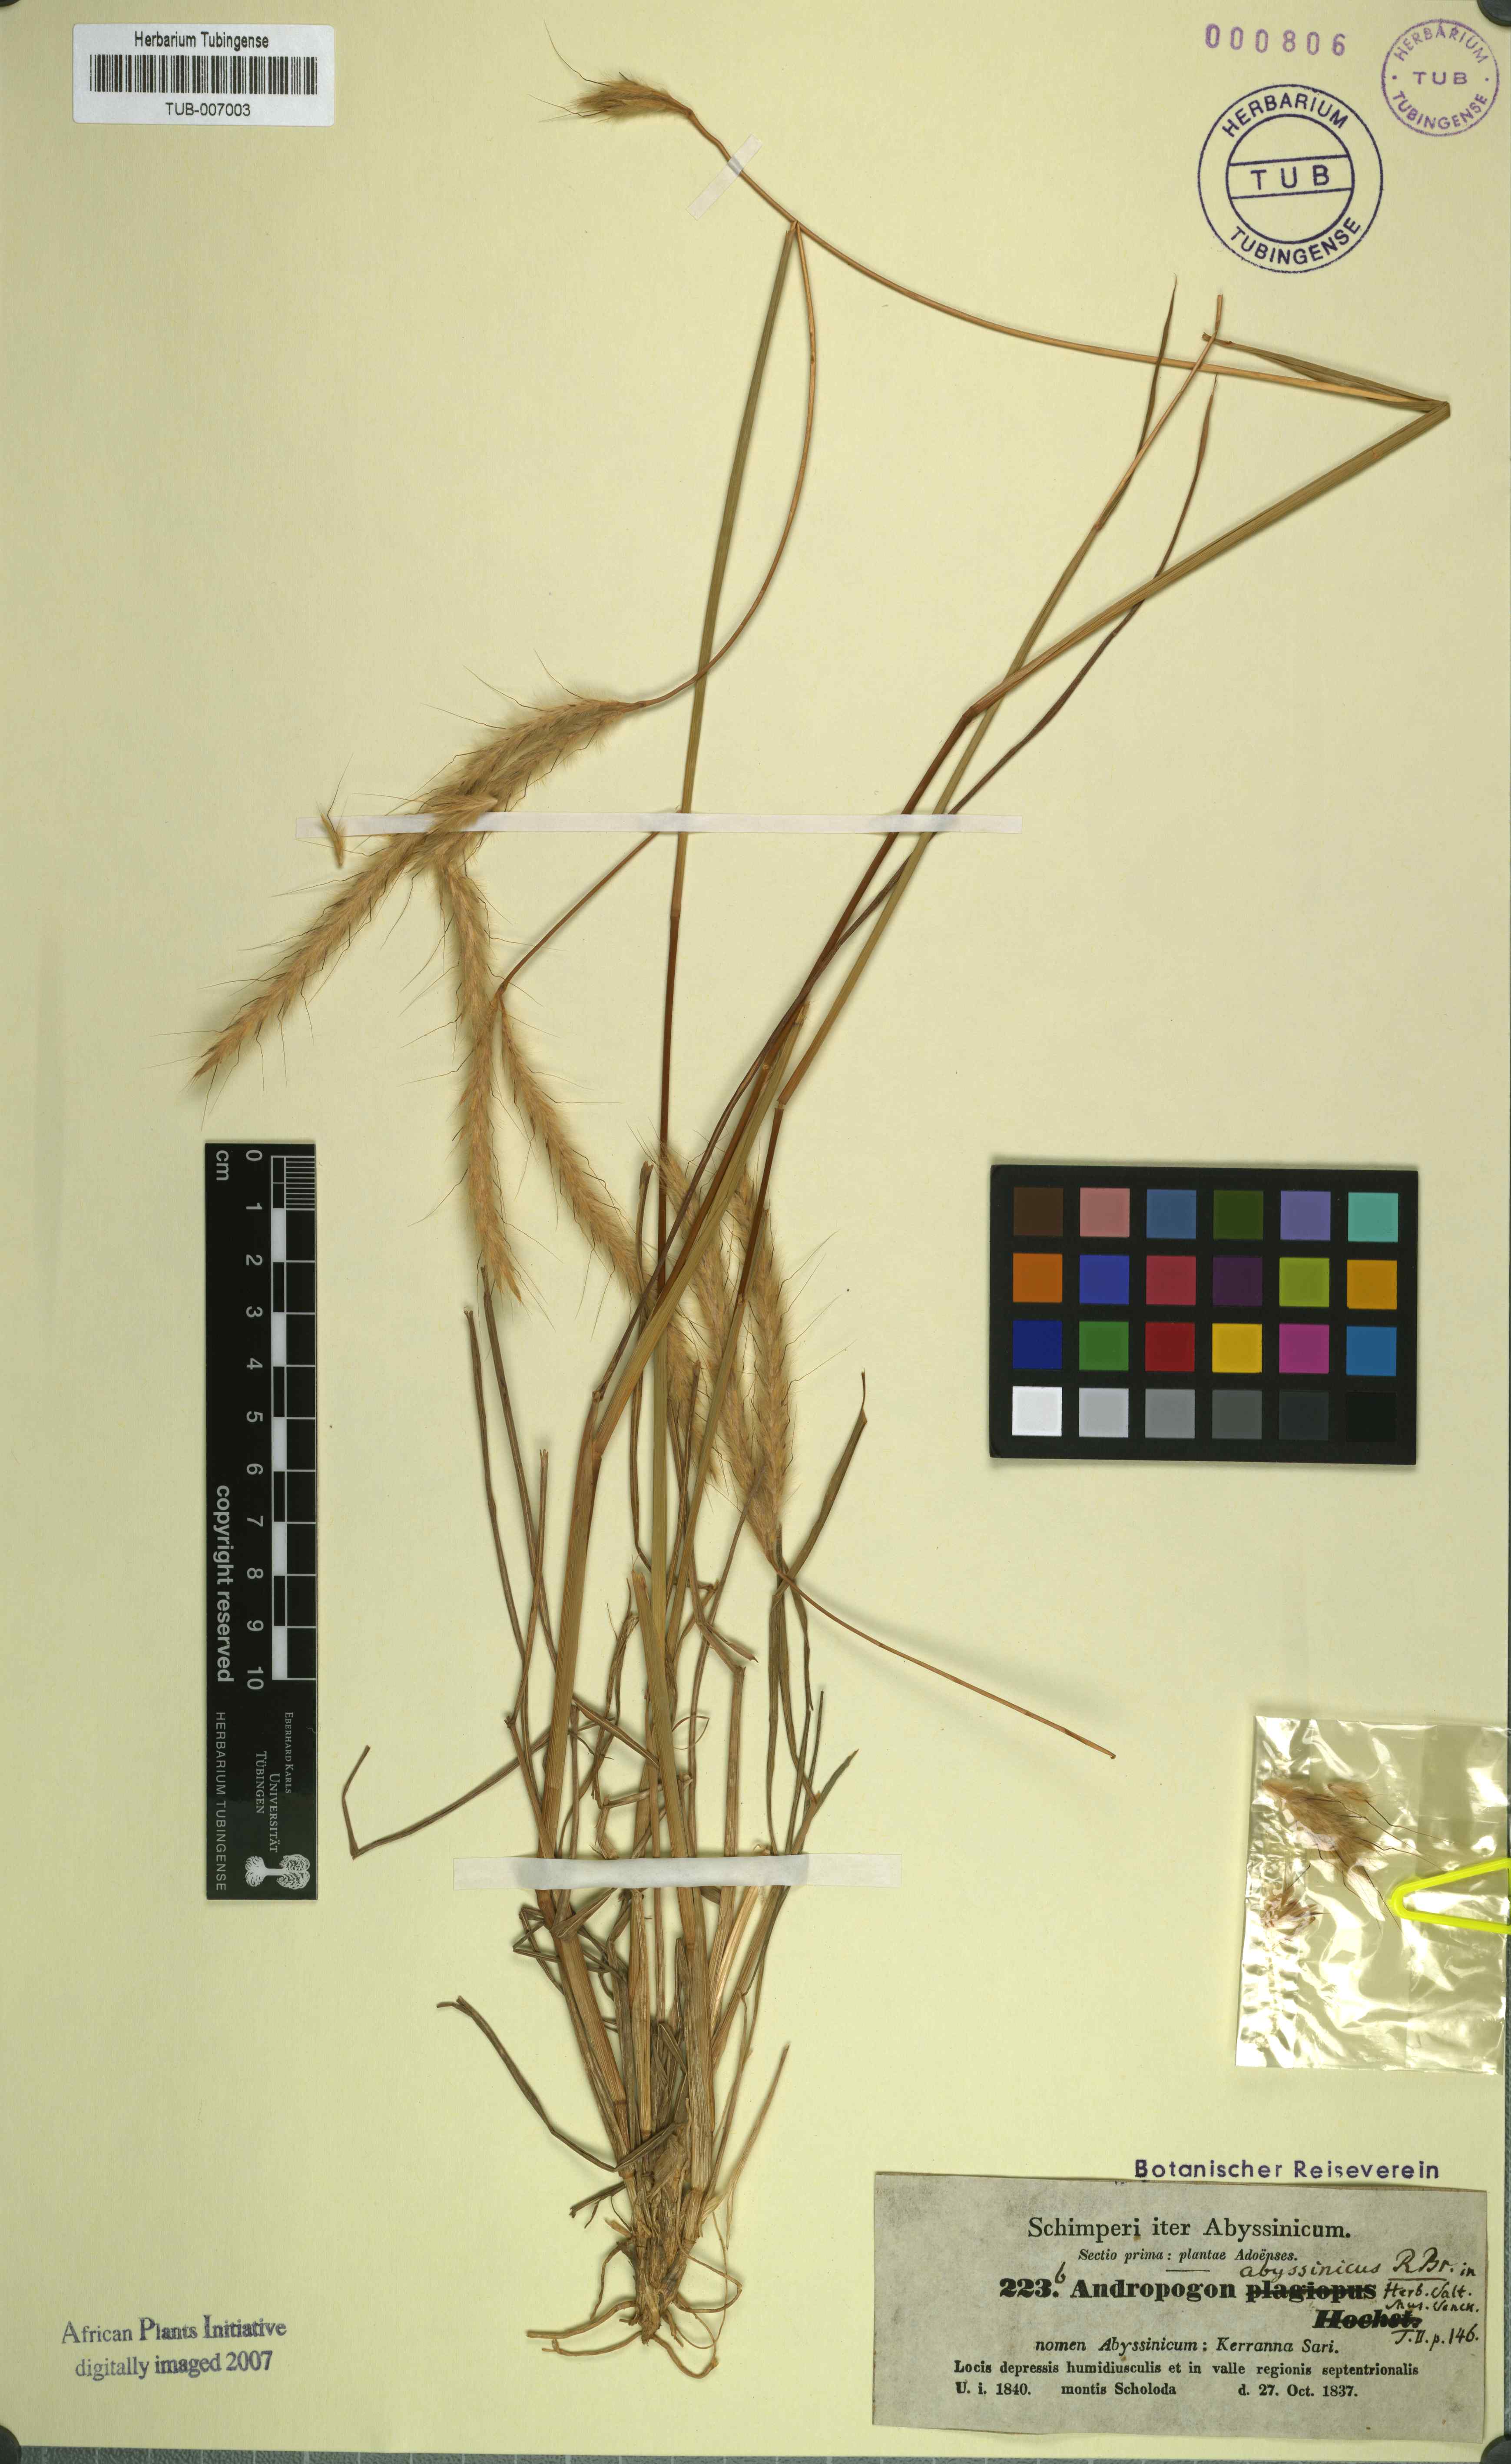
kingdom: Plantae
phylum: Tracheophyta
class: Liliopsida
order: Poales
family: Poaceae
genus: Andropogon
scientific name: Andropogon abyssinicus
